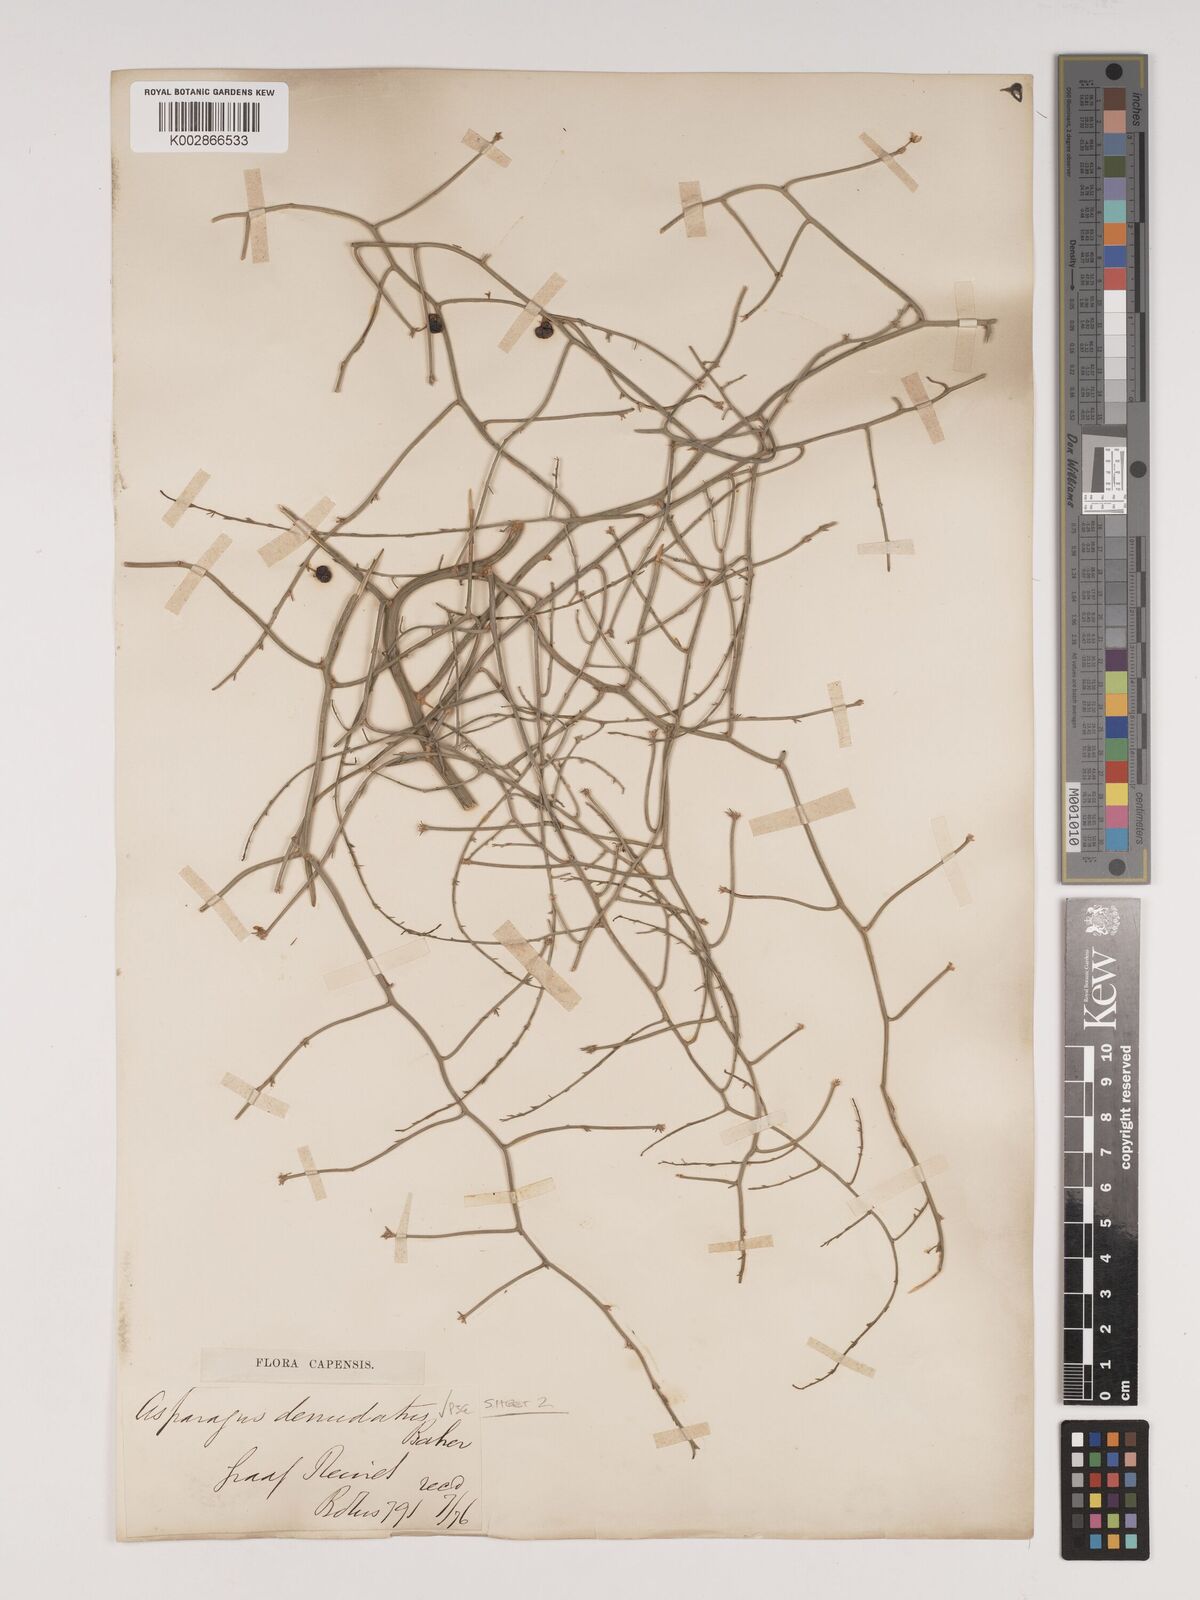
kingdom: Plantae
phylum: Tracheophyta
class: Liliopsida
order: Asparagales
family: Asparagaceae
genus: Asparagus
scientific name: Asparagus denudatus
